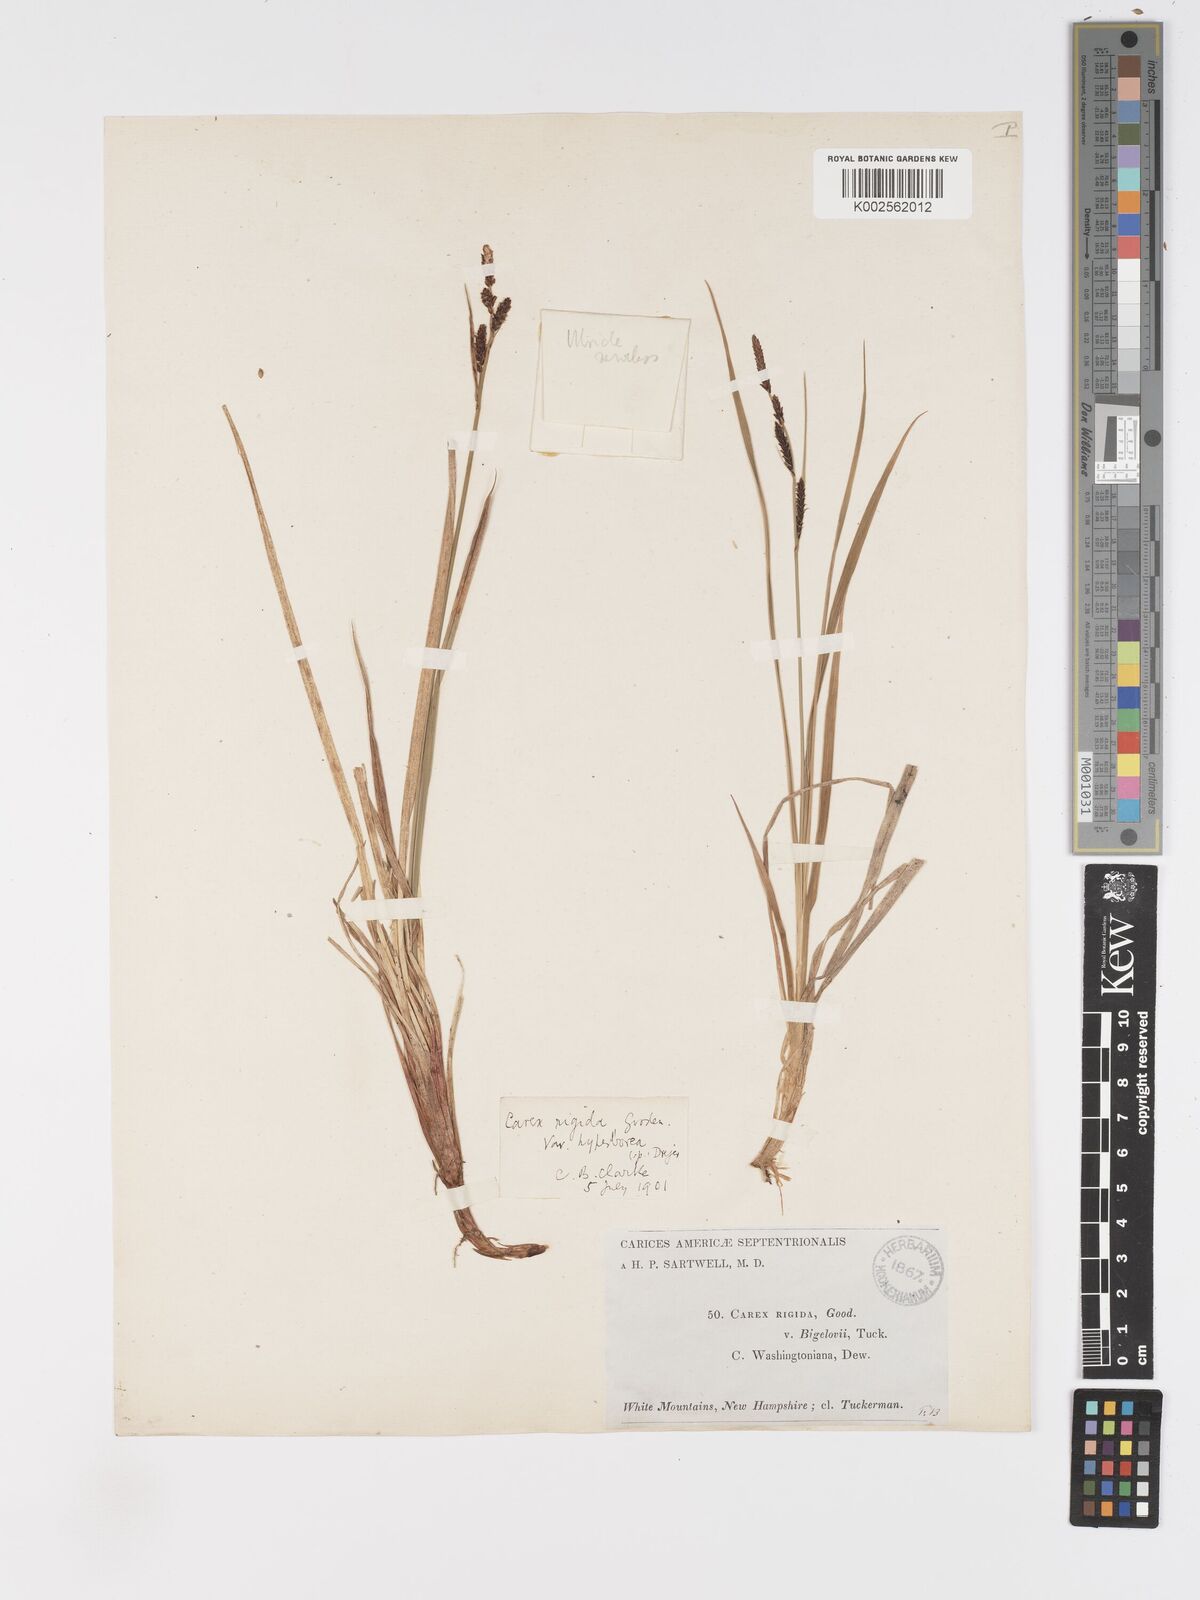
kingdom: Plantae
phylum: Tracheophyta
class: Liliopsida
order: Poales
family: Cyperaceae
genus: Carex
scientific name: Carex bigelowii
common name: Stiff sedge
